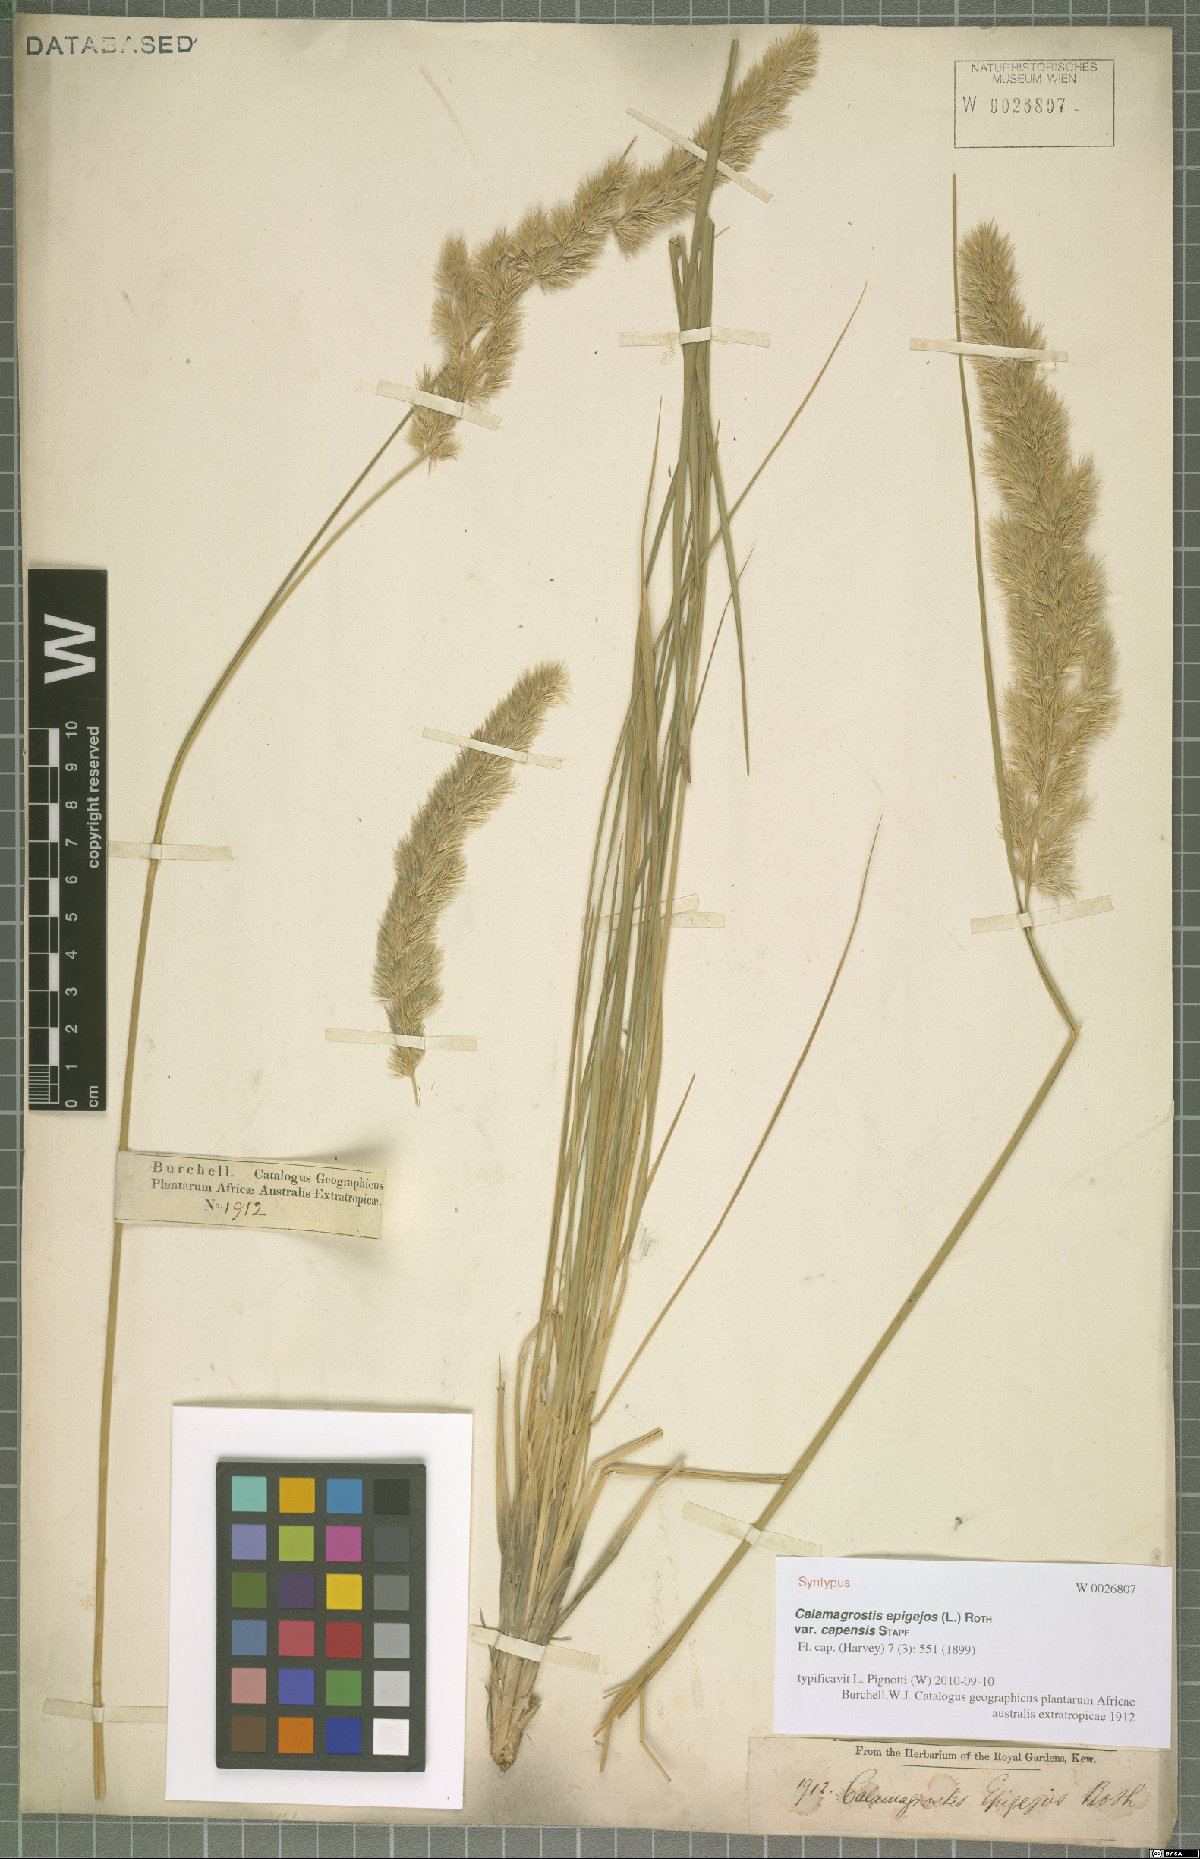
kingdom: Plantae
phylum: Tracheophyta
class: Liliopsida
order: Poales
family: Poaceae
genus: Calamagrostis
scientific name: Calamagrostis epigejos
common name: Wood small-reed
